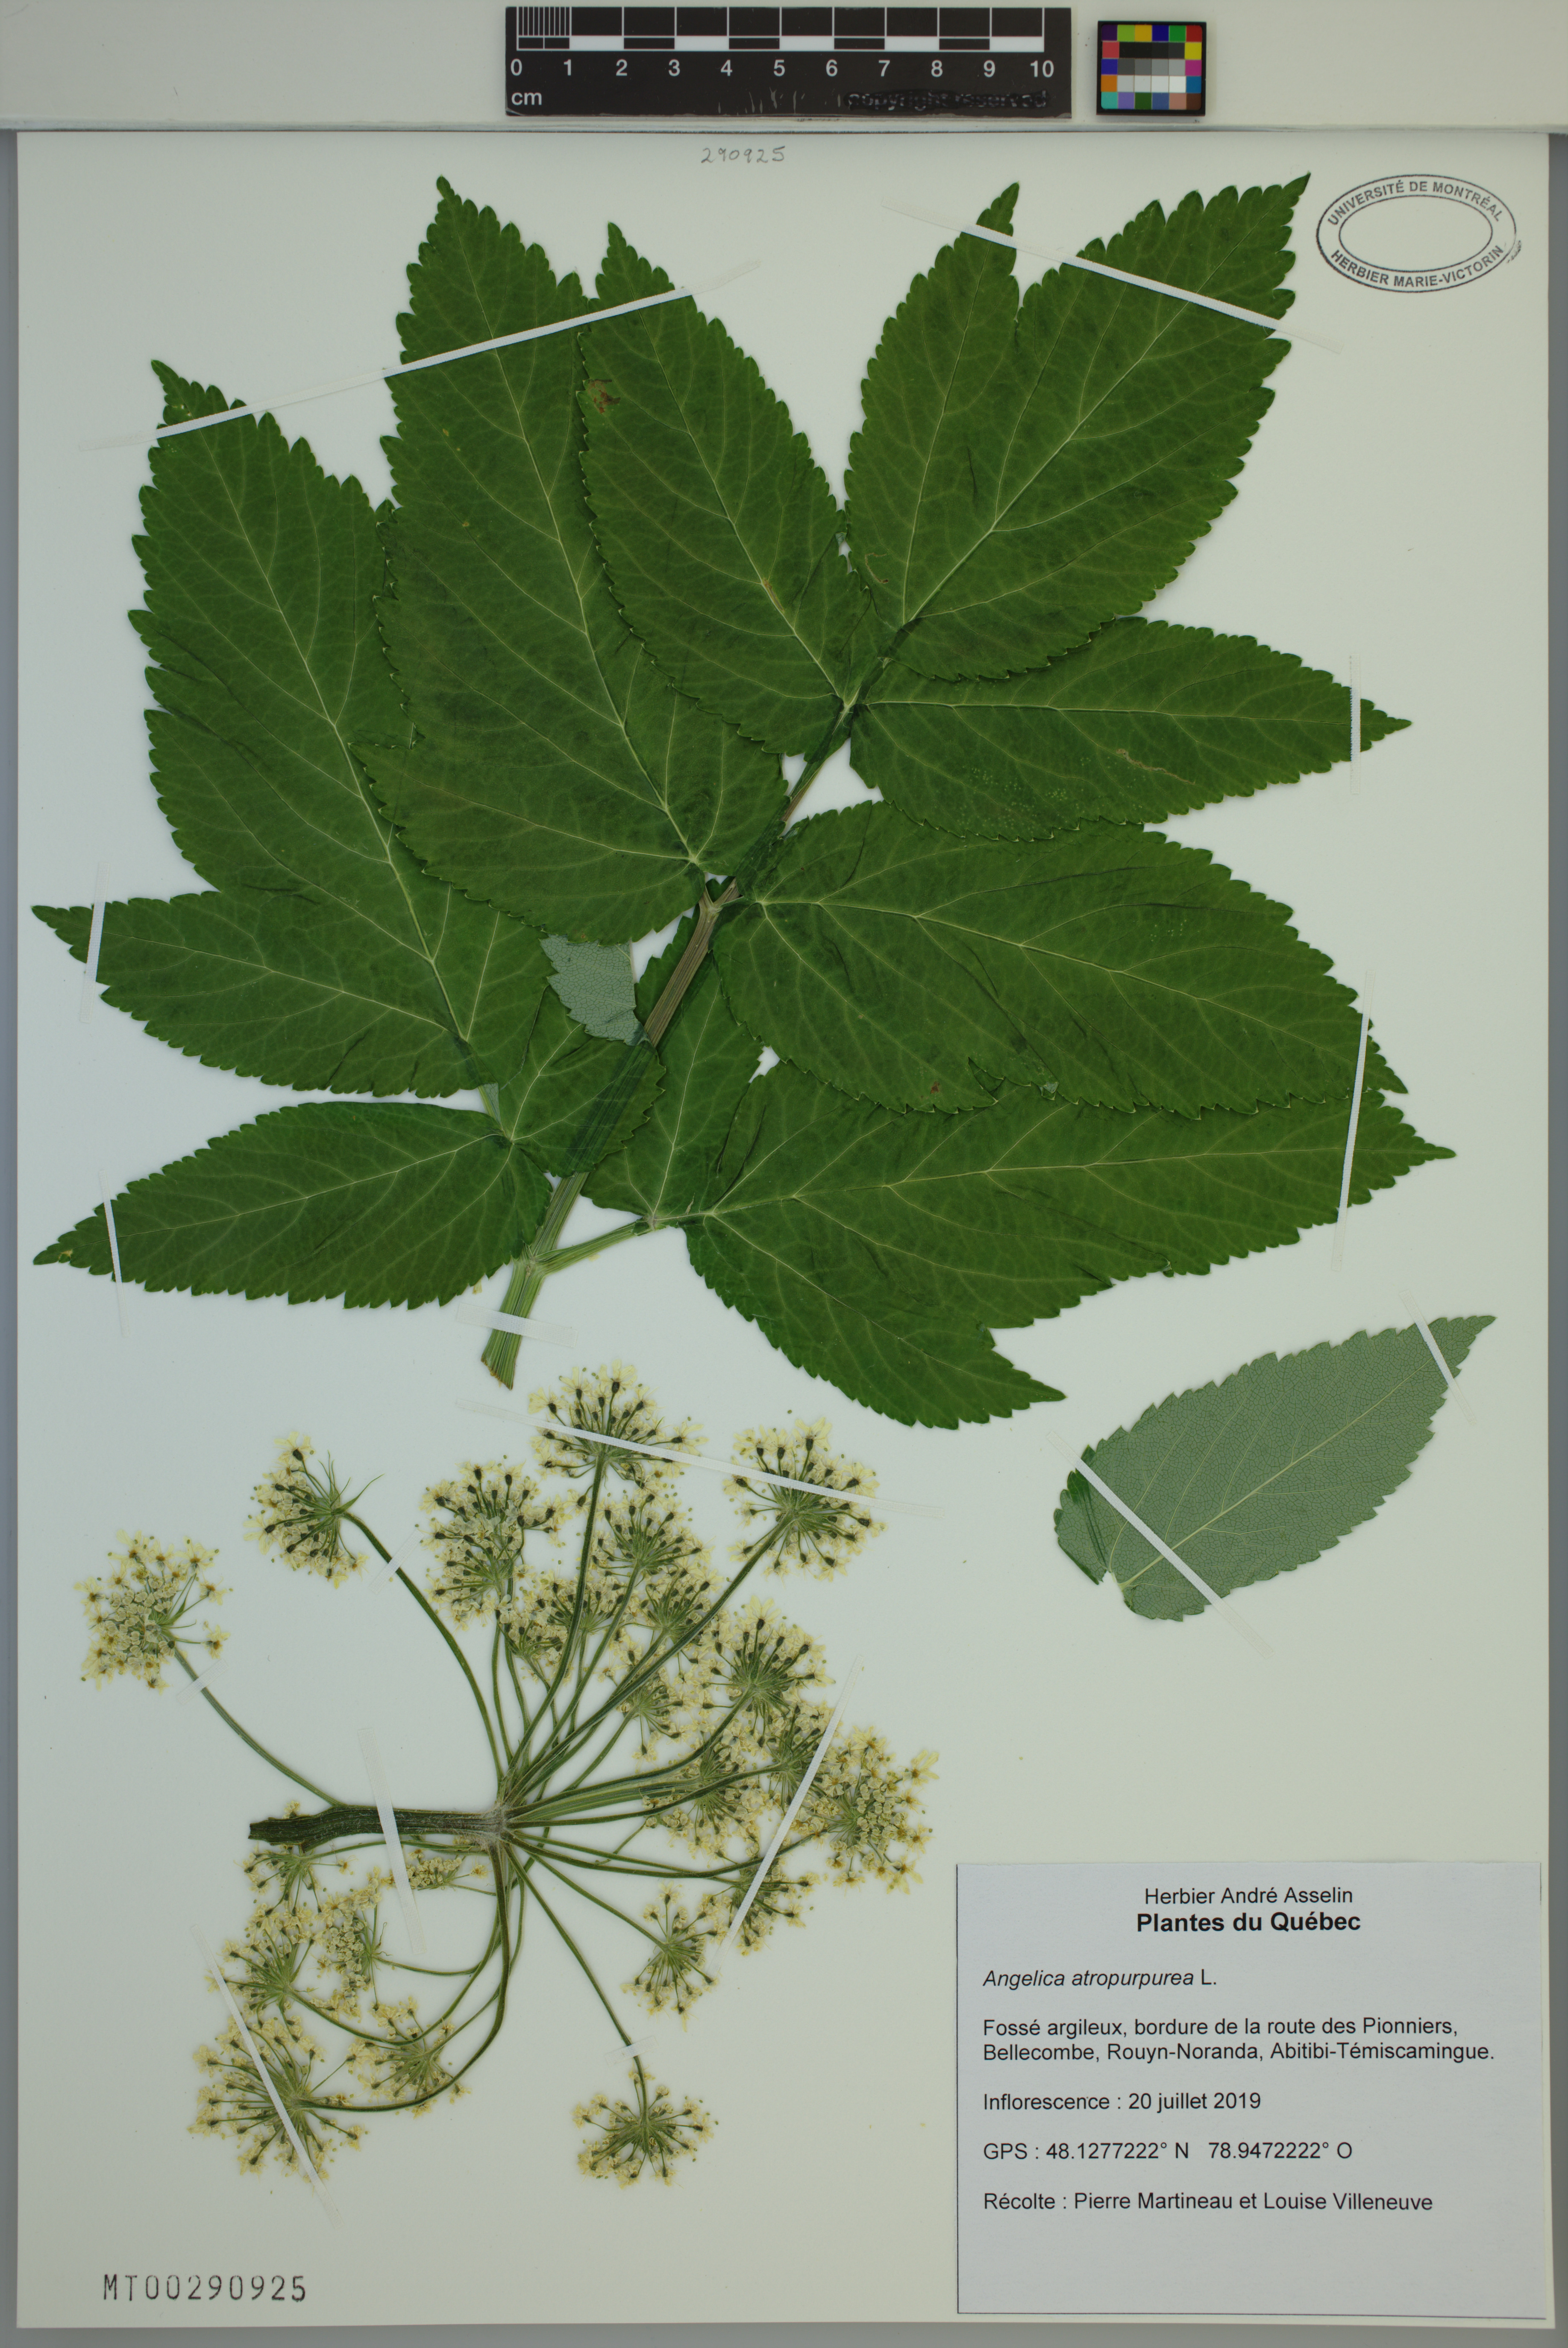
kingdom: Plantae
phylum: Tracheophyta
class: Magnoliopsida
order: Apiales
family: Apiaceae
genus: Angelica
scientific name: Angelica atropurpurea
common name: Great angelica
